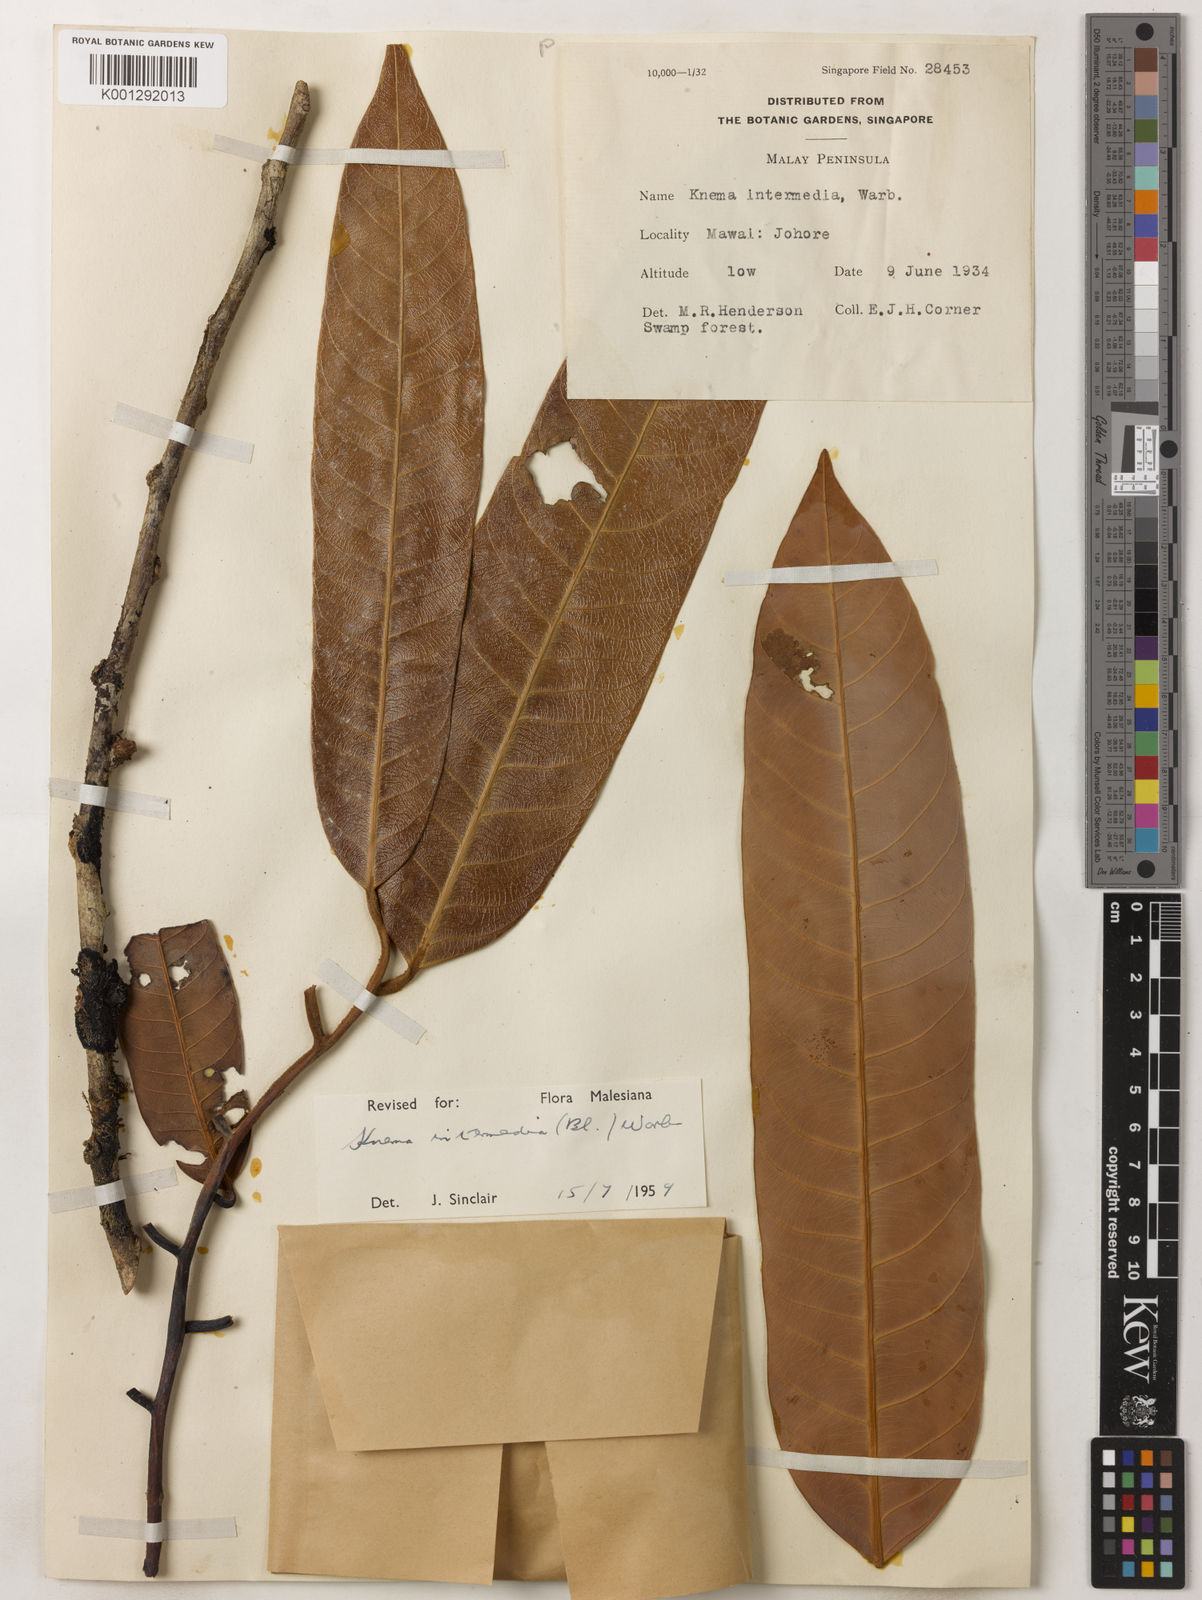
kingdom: Plantae
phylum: Tracheophyta
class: Magnoliopsida
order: Magnoliales
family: Myristicaceae
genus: Knema
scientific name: Knema intermedia
